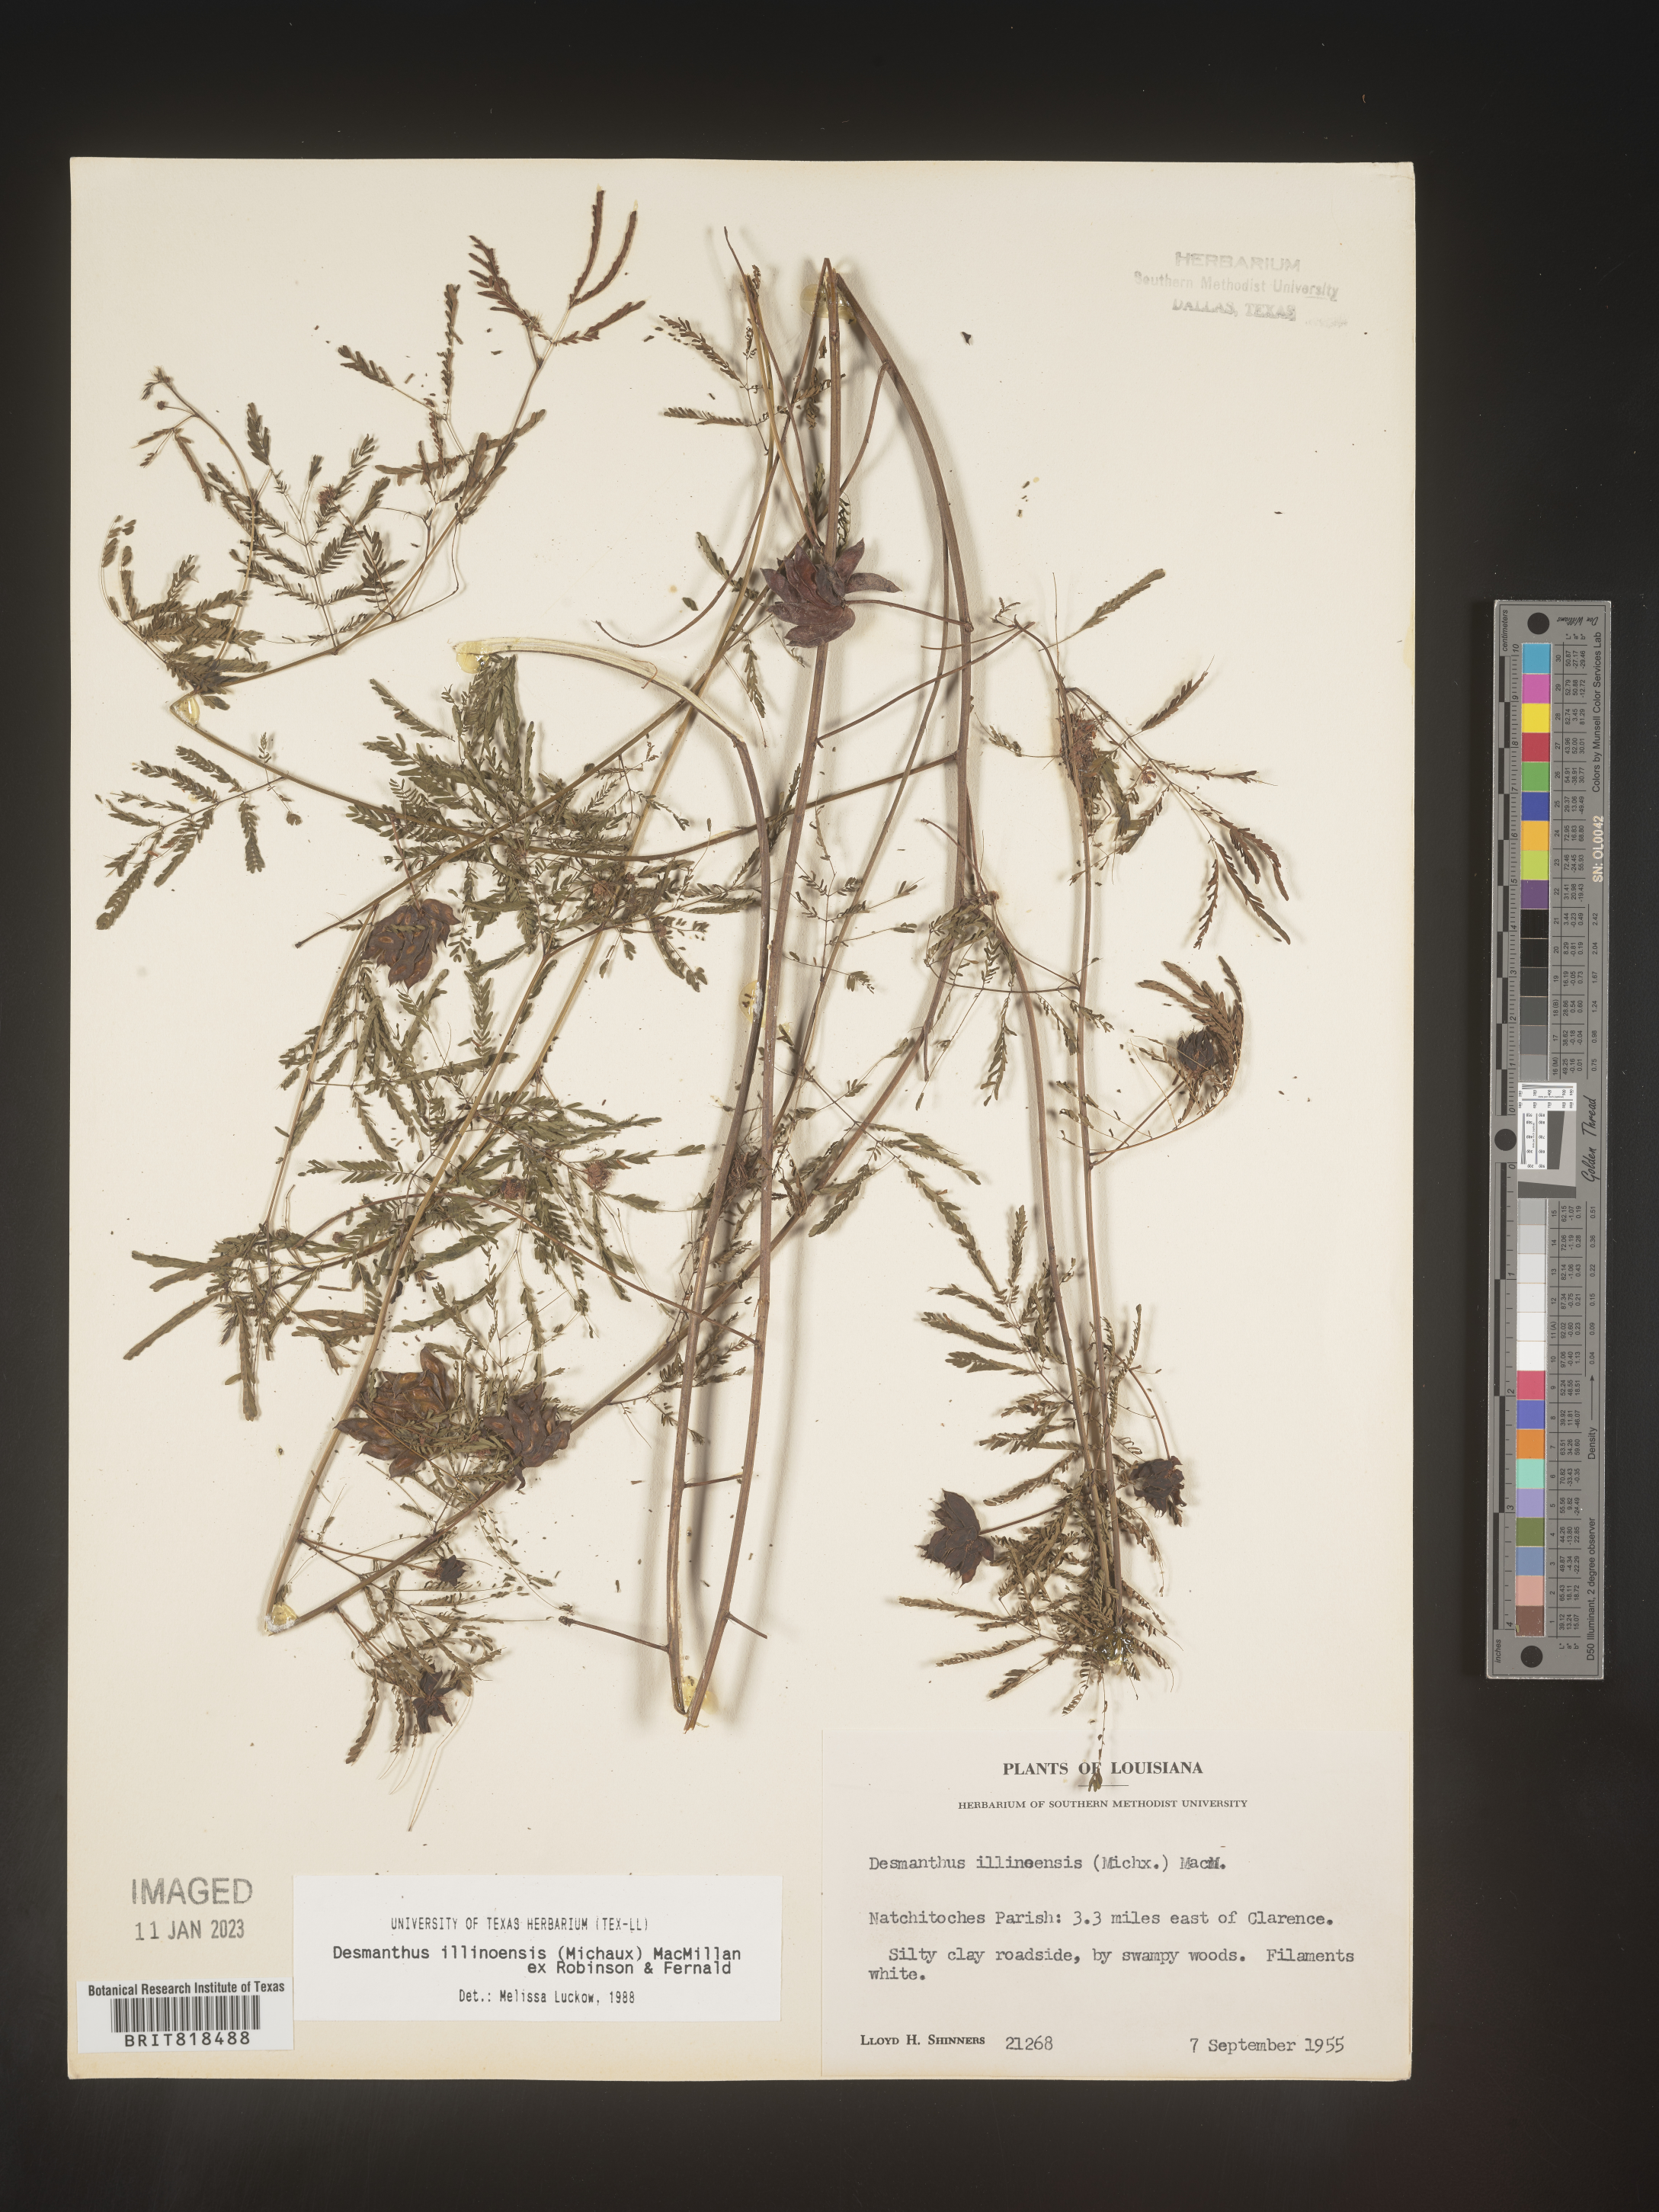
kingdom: Plantae
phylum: Tracheophyta
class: Magnoliopsida
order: Fabales
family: Fabaceae
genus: Desmanthus
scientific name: Desmanthus illinoensis
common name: Illinois bundle-flower
